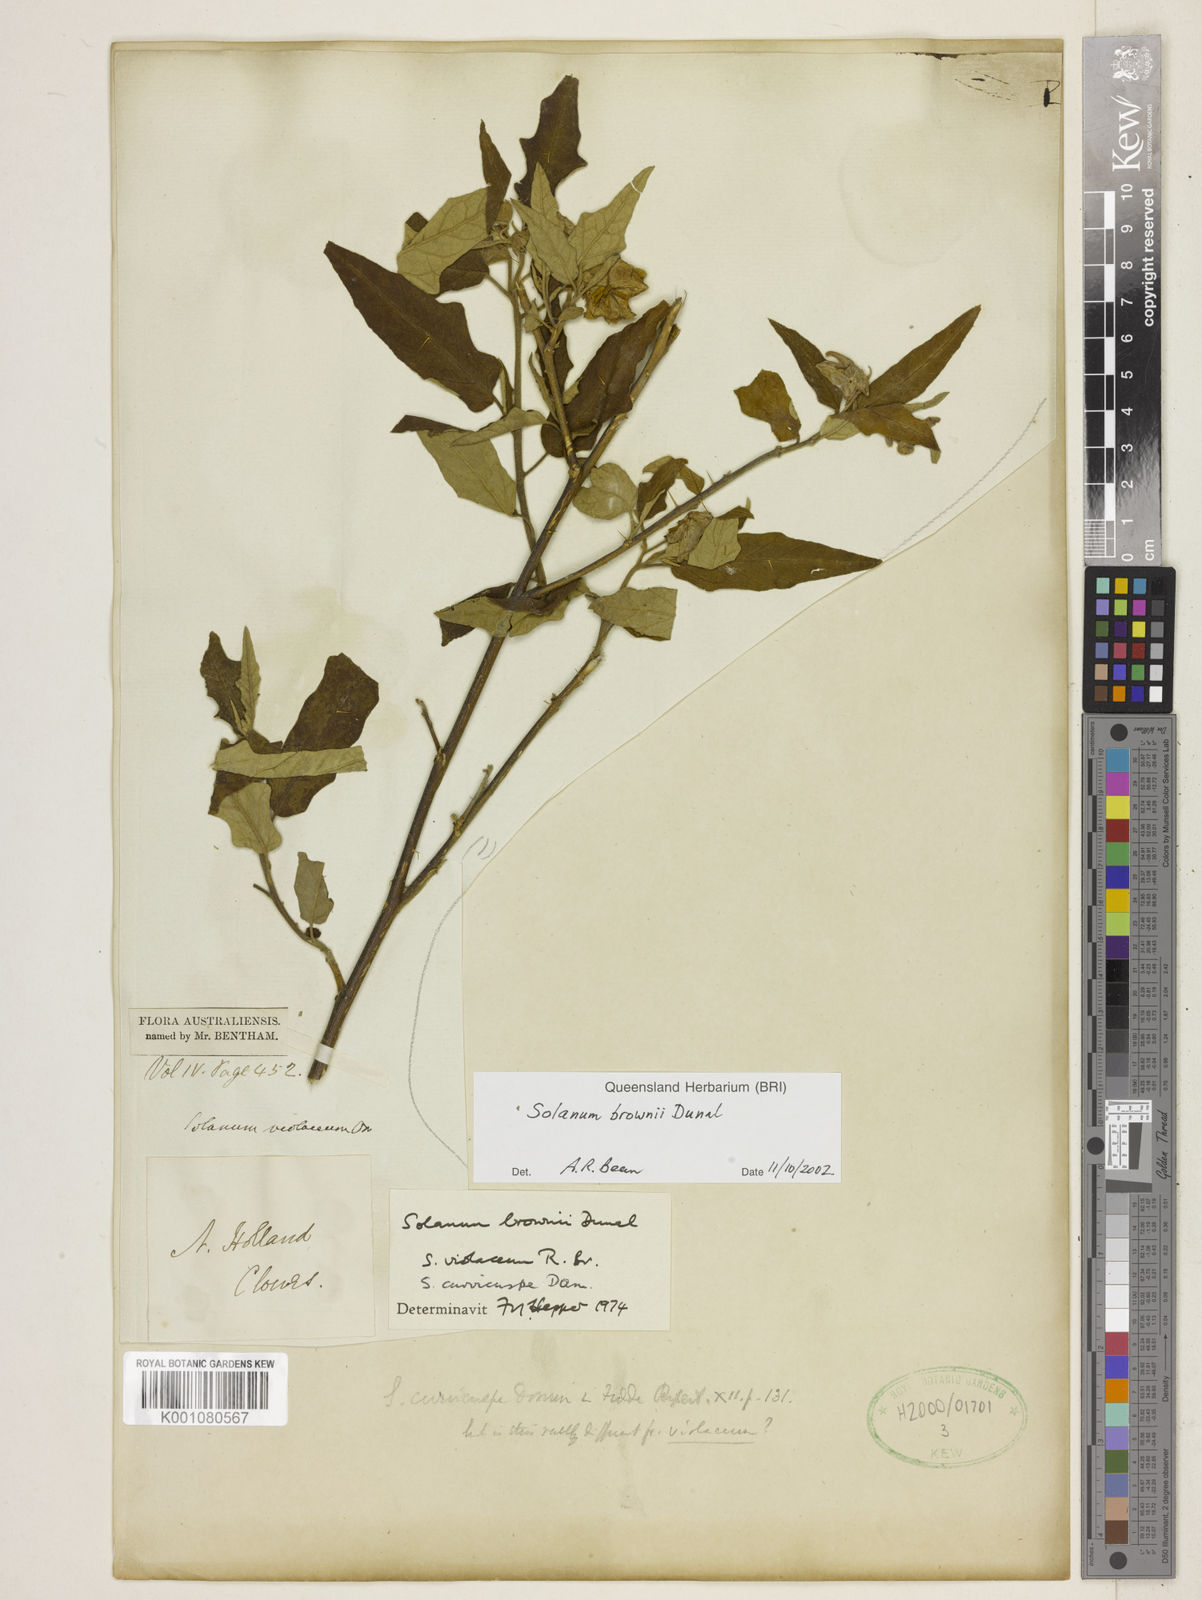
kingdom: Plantae
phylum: Tracheophyta
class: Magnoliopsida
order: Solanales
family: Solanaceae
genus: Solanum
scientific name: Solanum brownii
